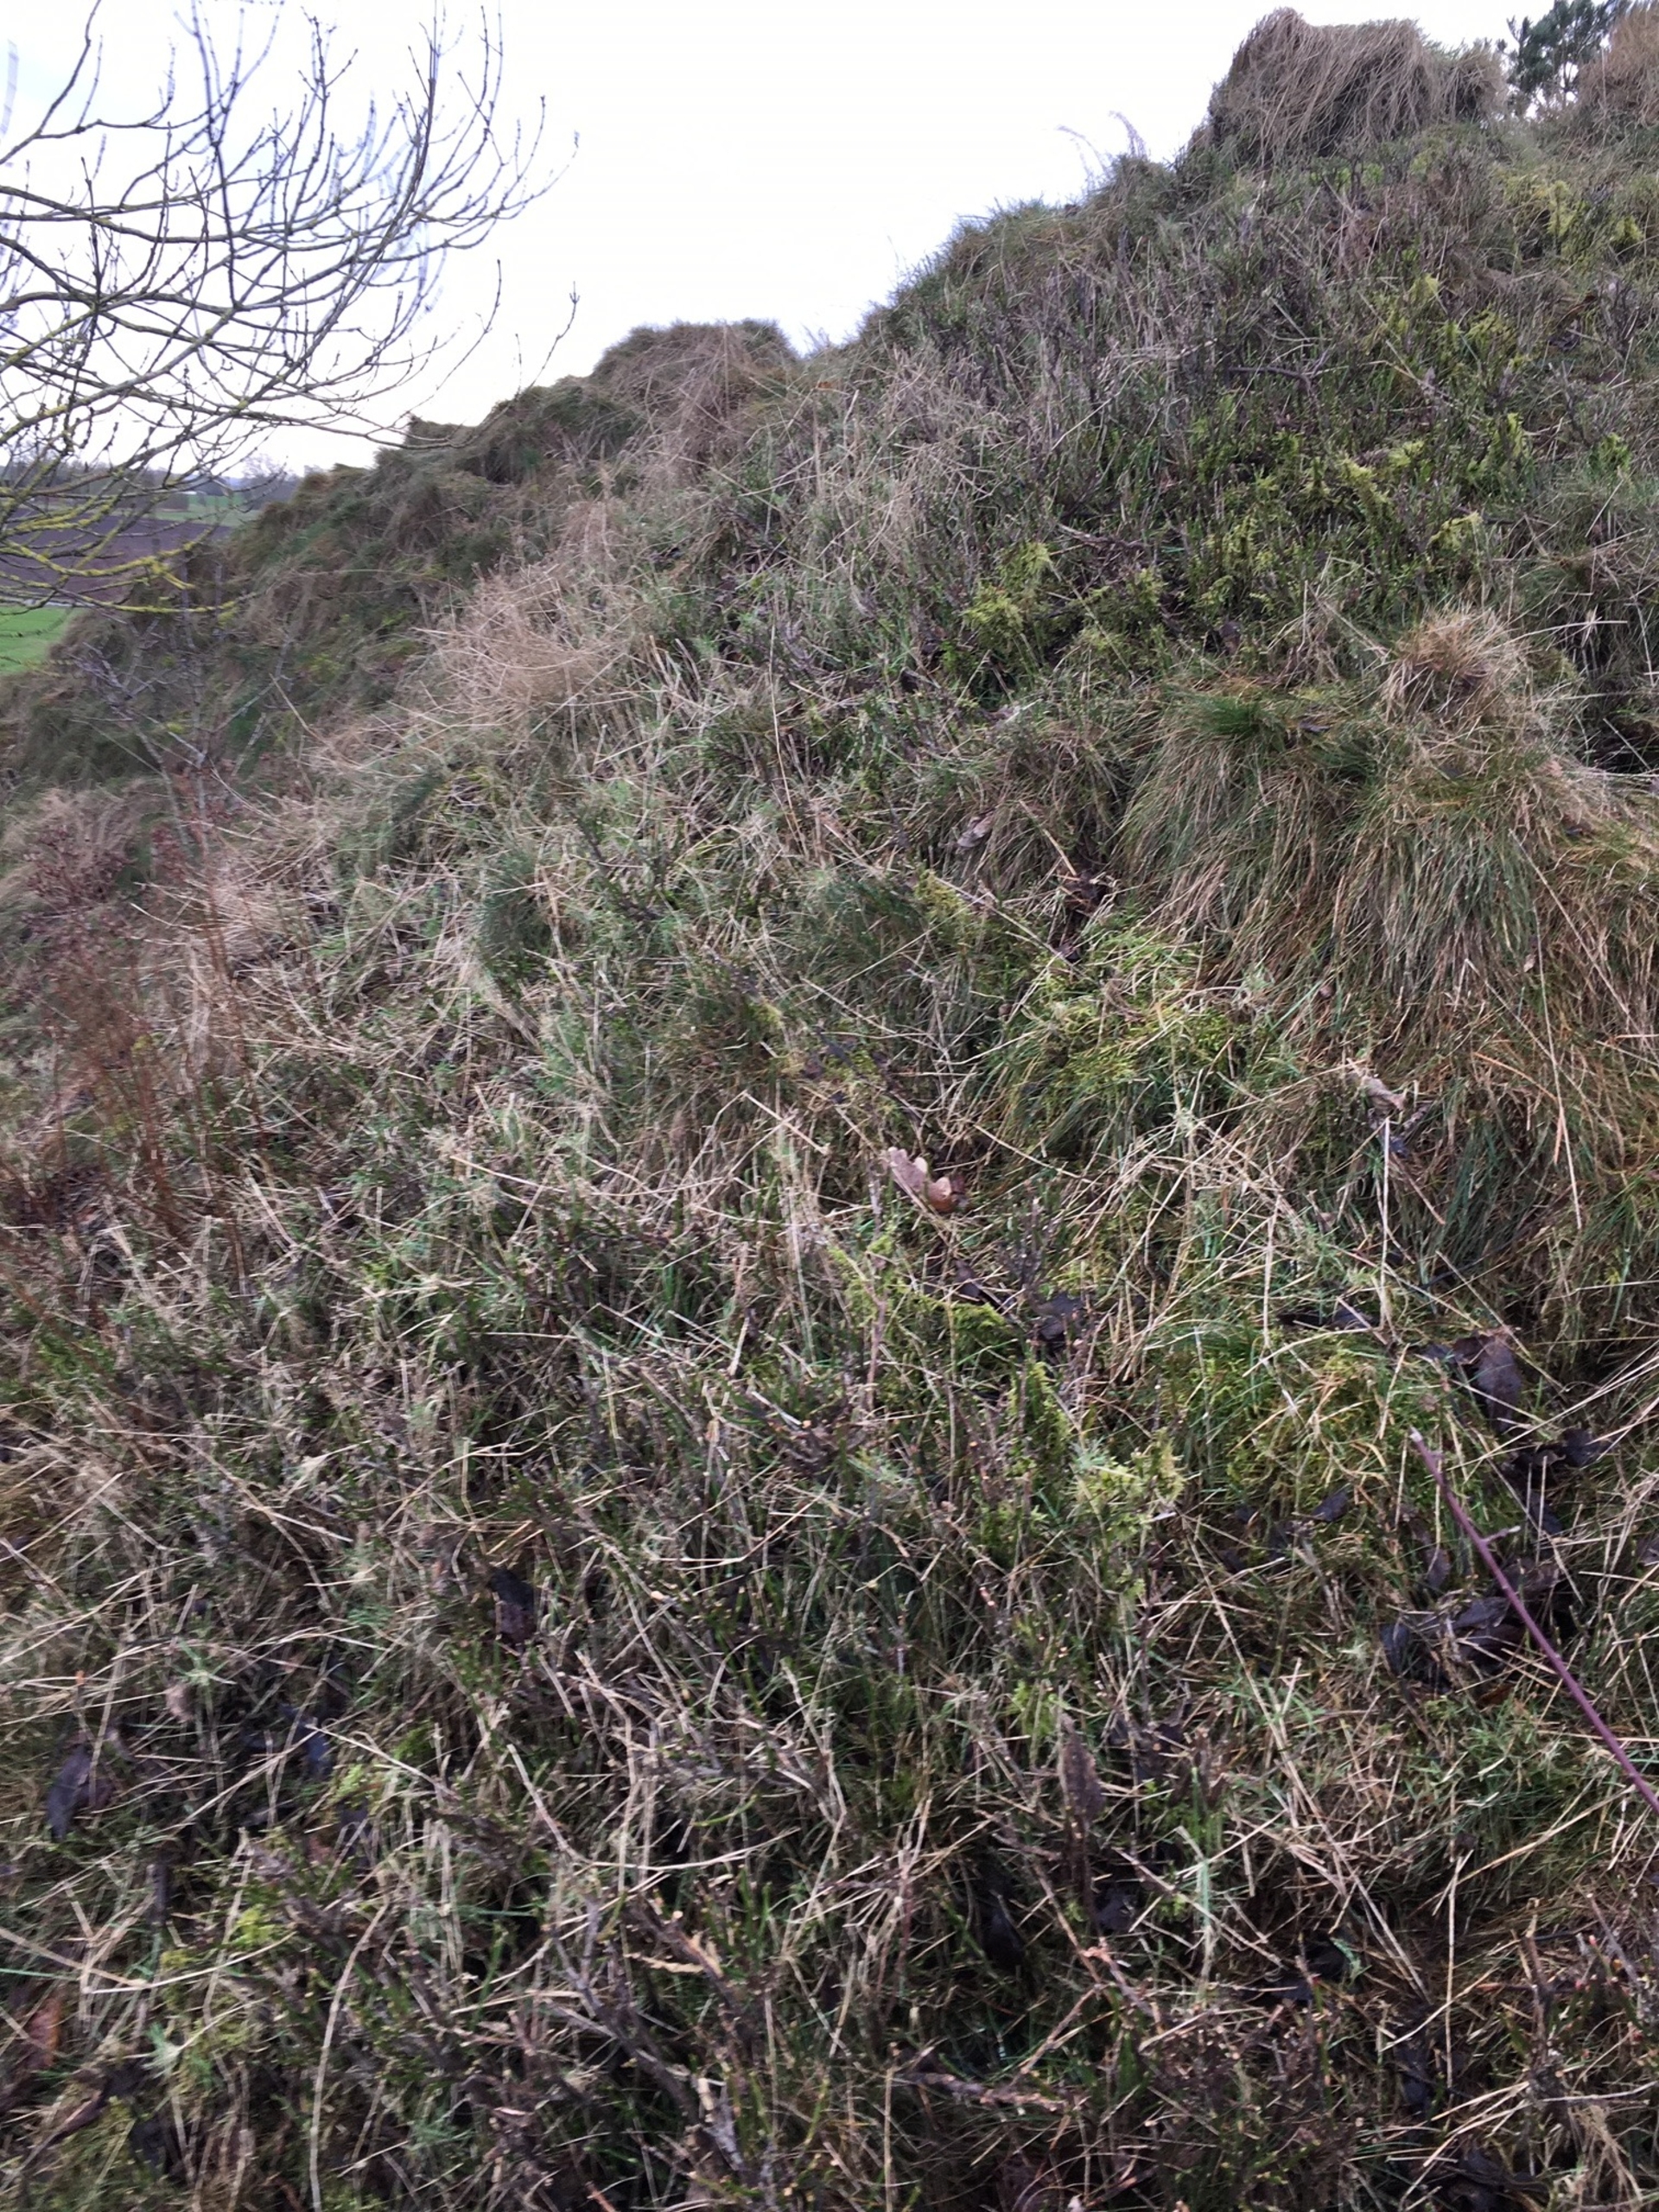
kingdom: Plantae
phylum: Tracheophyta
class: Magnoliopsida
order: Ericales
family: Ericaceae
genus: Vaccinium
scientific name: Vaccinium myrtillus
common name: Blåbær
